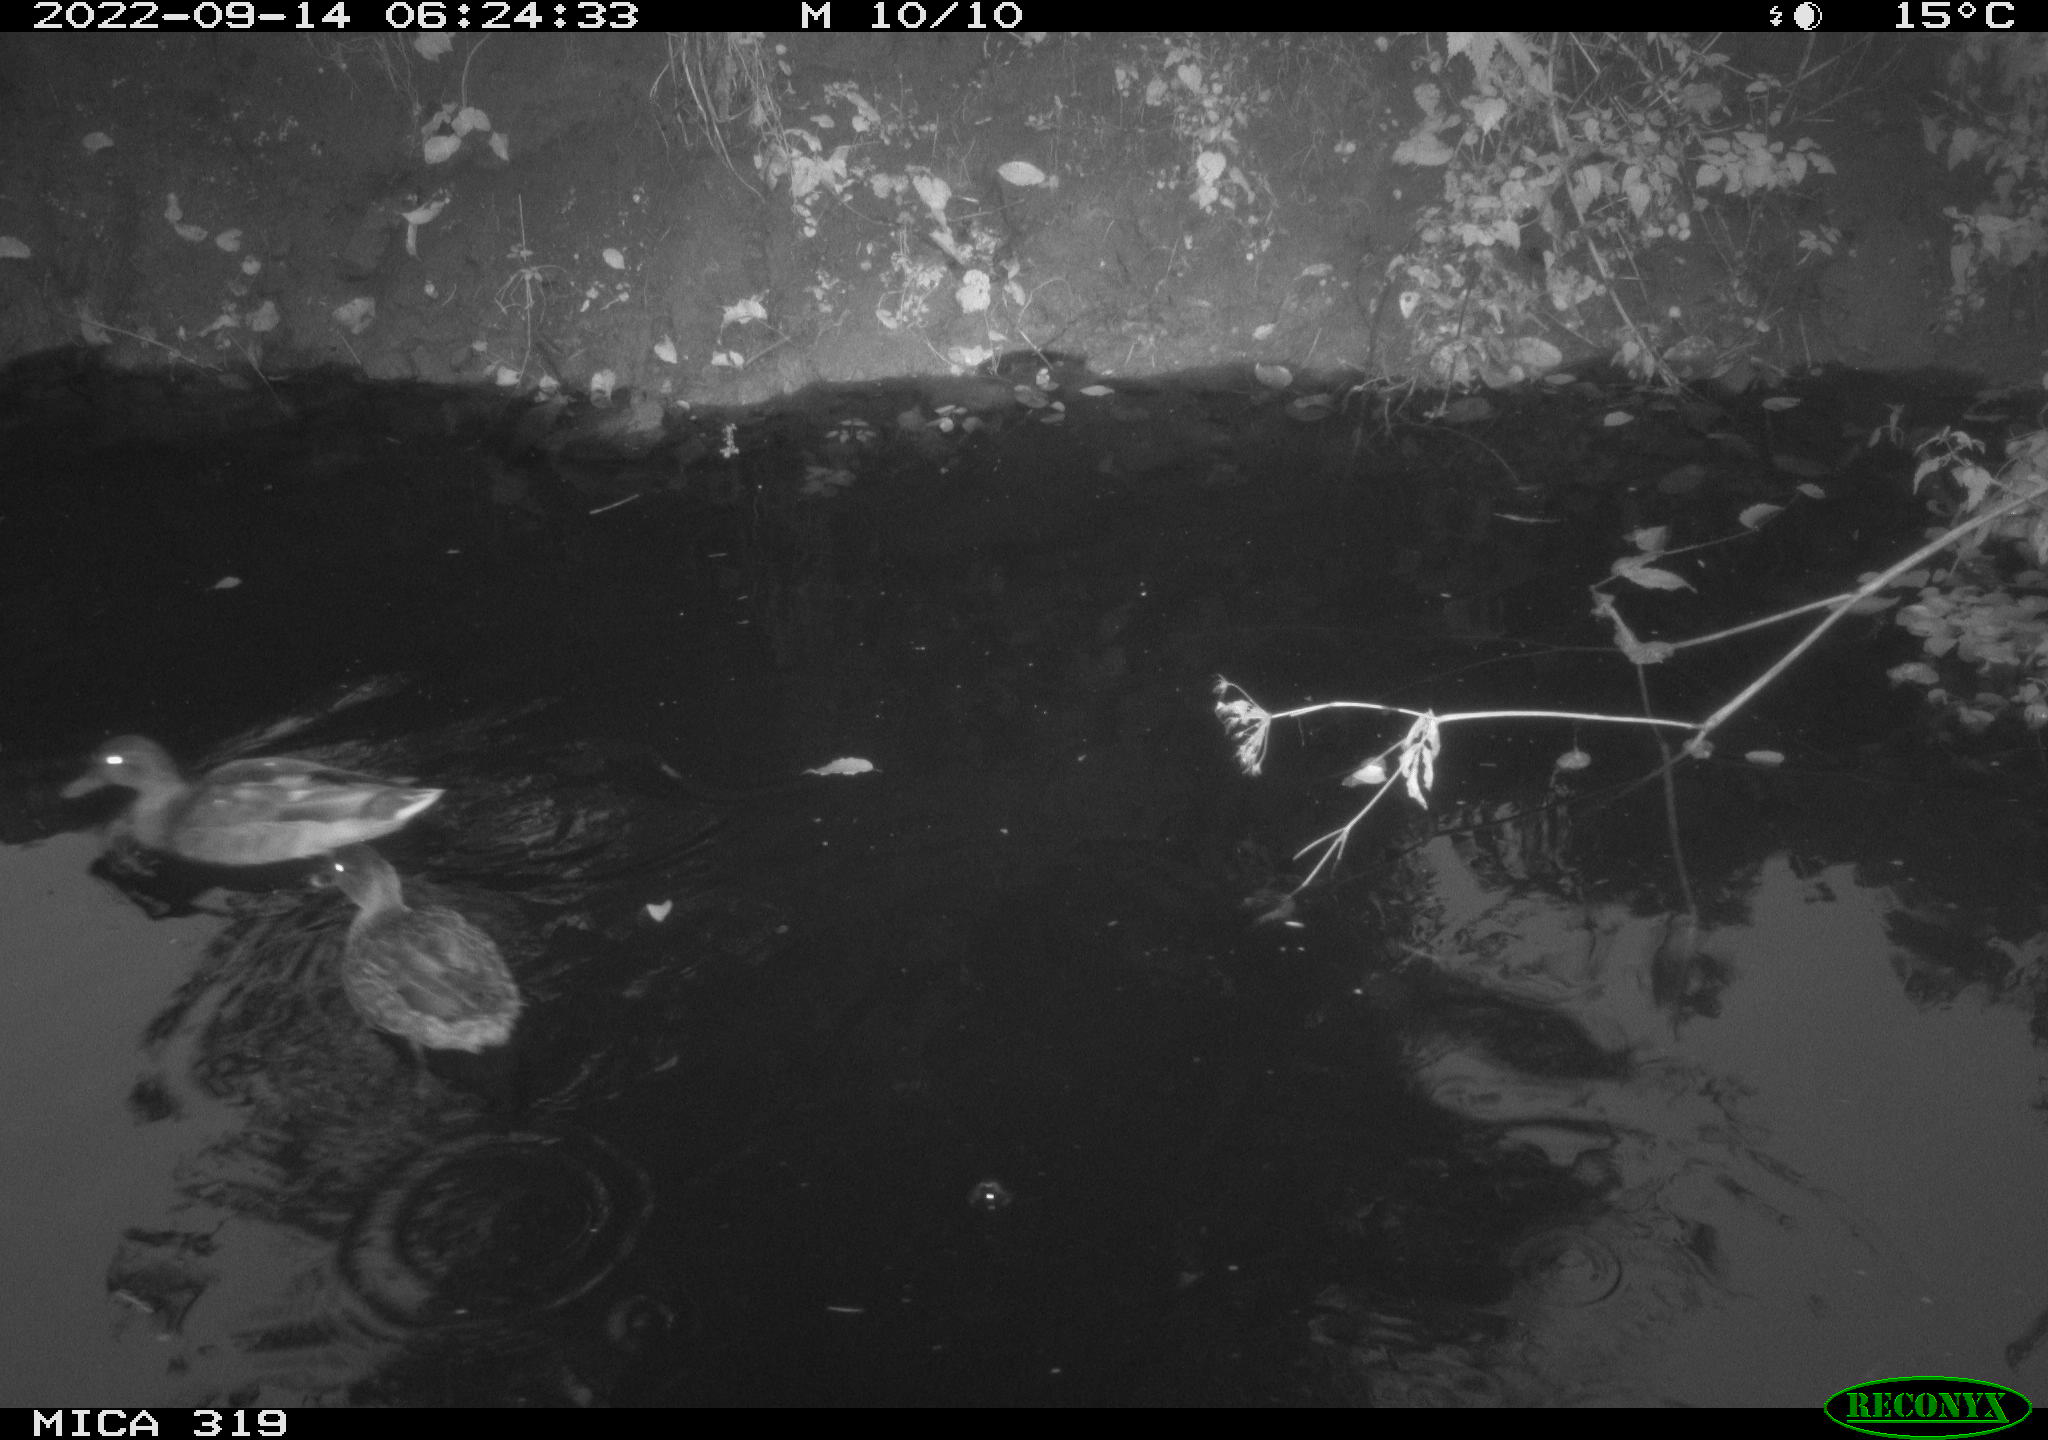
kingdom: Animalia
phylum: Chordata
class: Aves
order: Anseriformes
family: Anatidae
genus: Anas
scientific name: Anas
